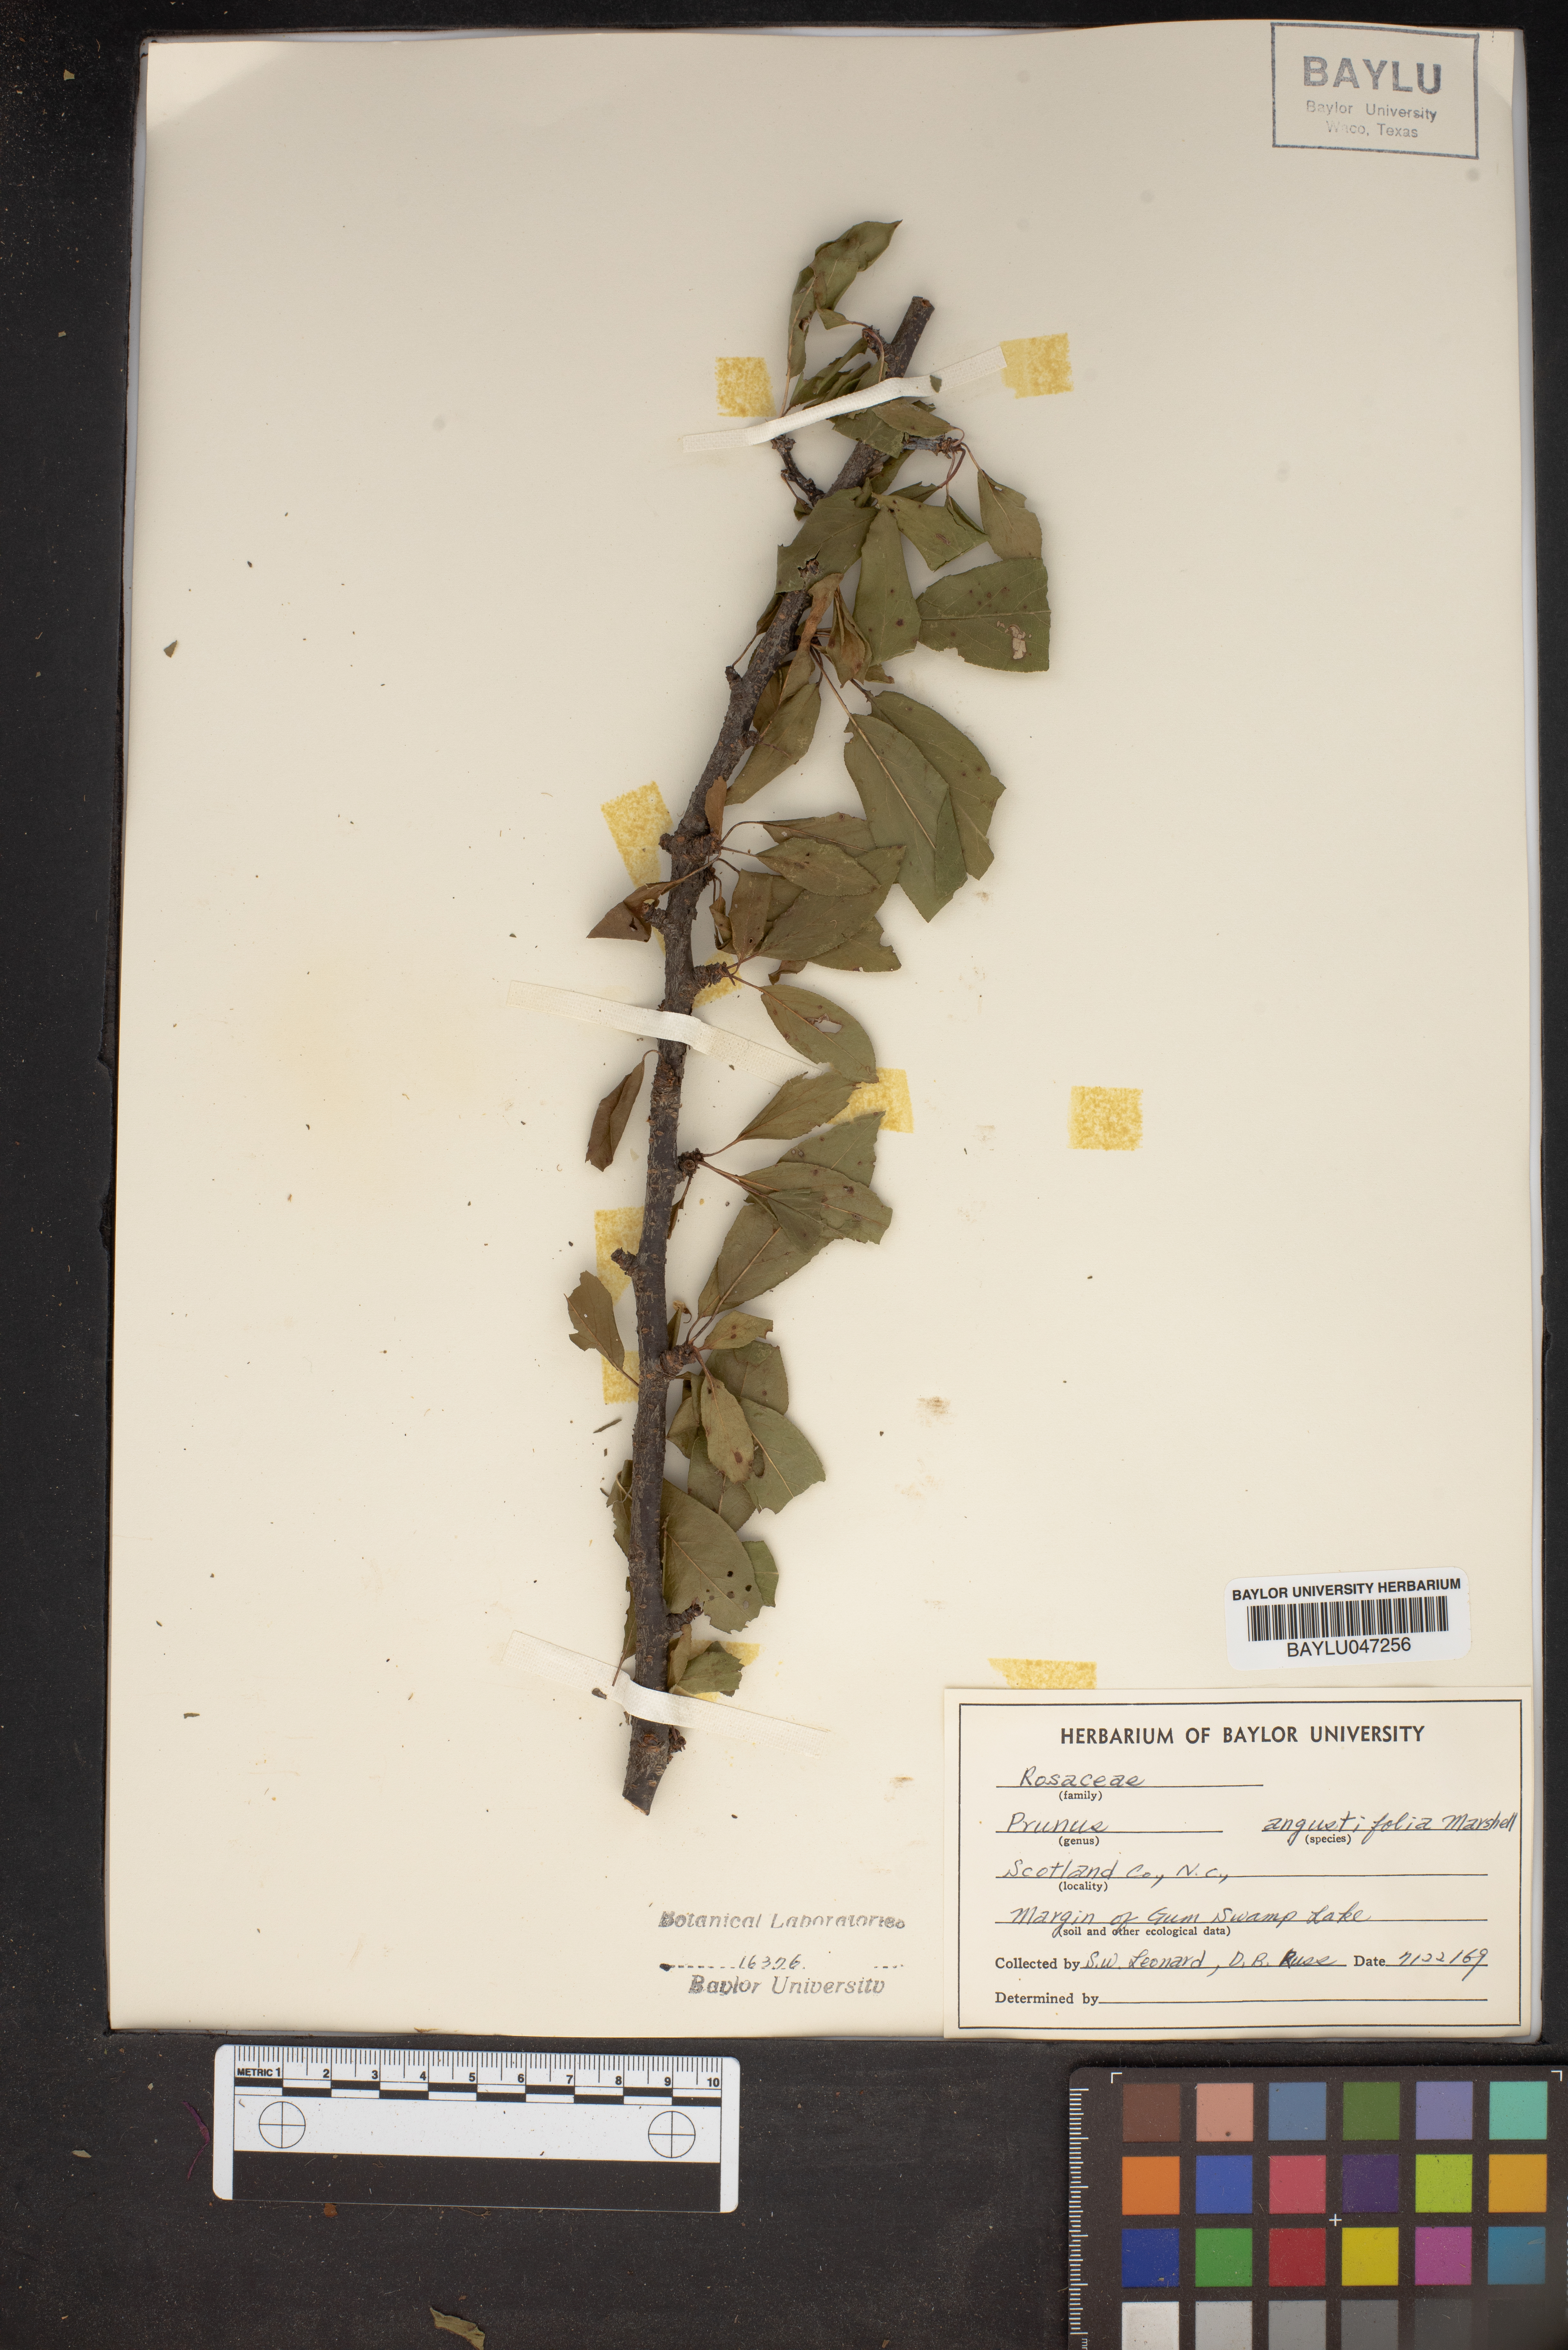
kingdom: Plantae
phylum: Tracheophyta
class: Magnoliopsida
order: Rosales
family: Rosaceae
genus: Prunus
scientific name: Prunus angustifolia
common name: Cherokee plum
